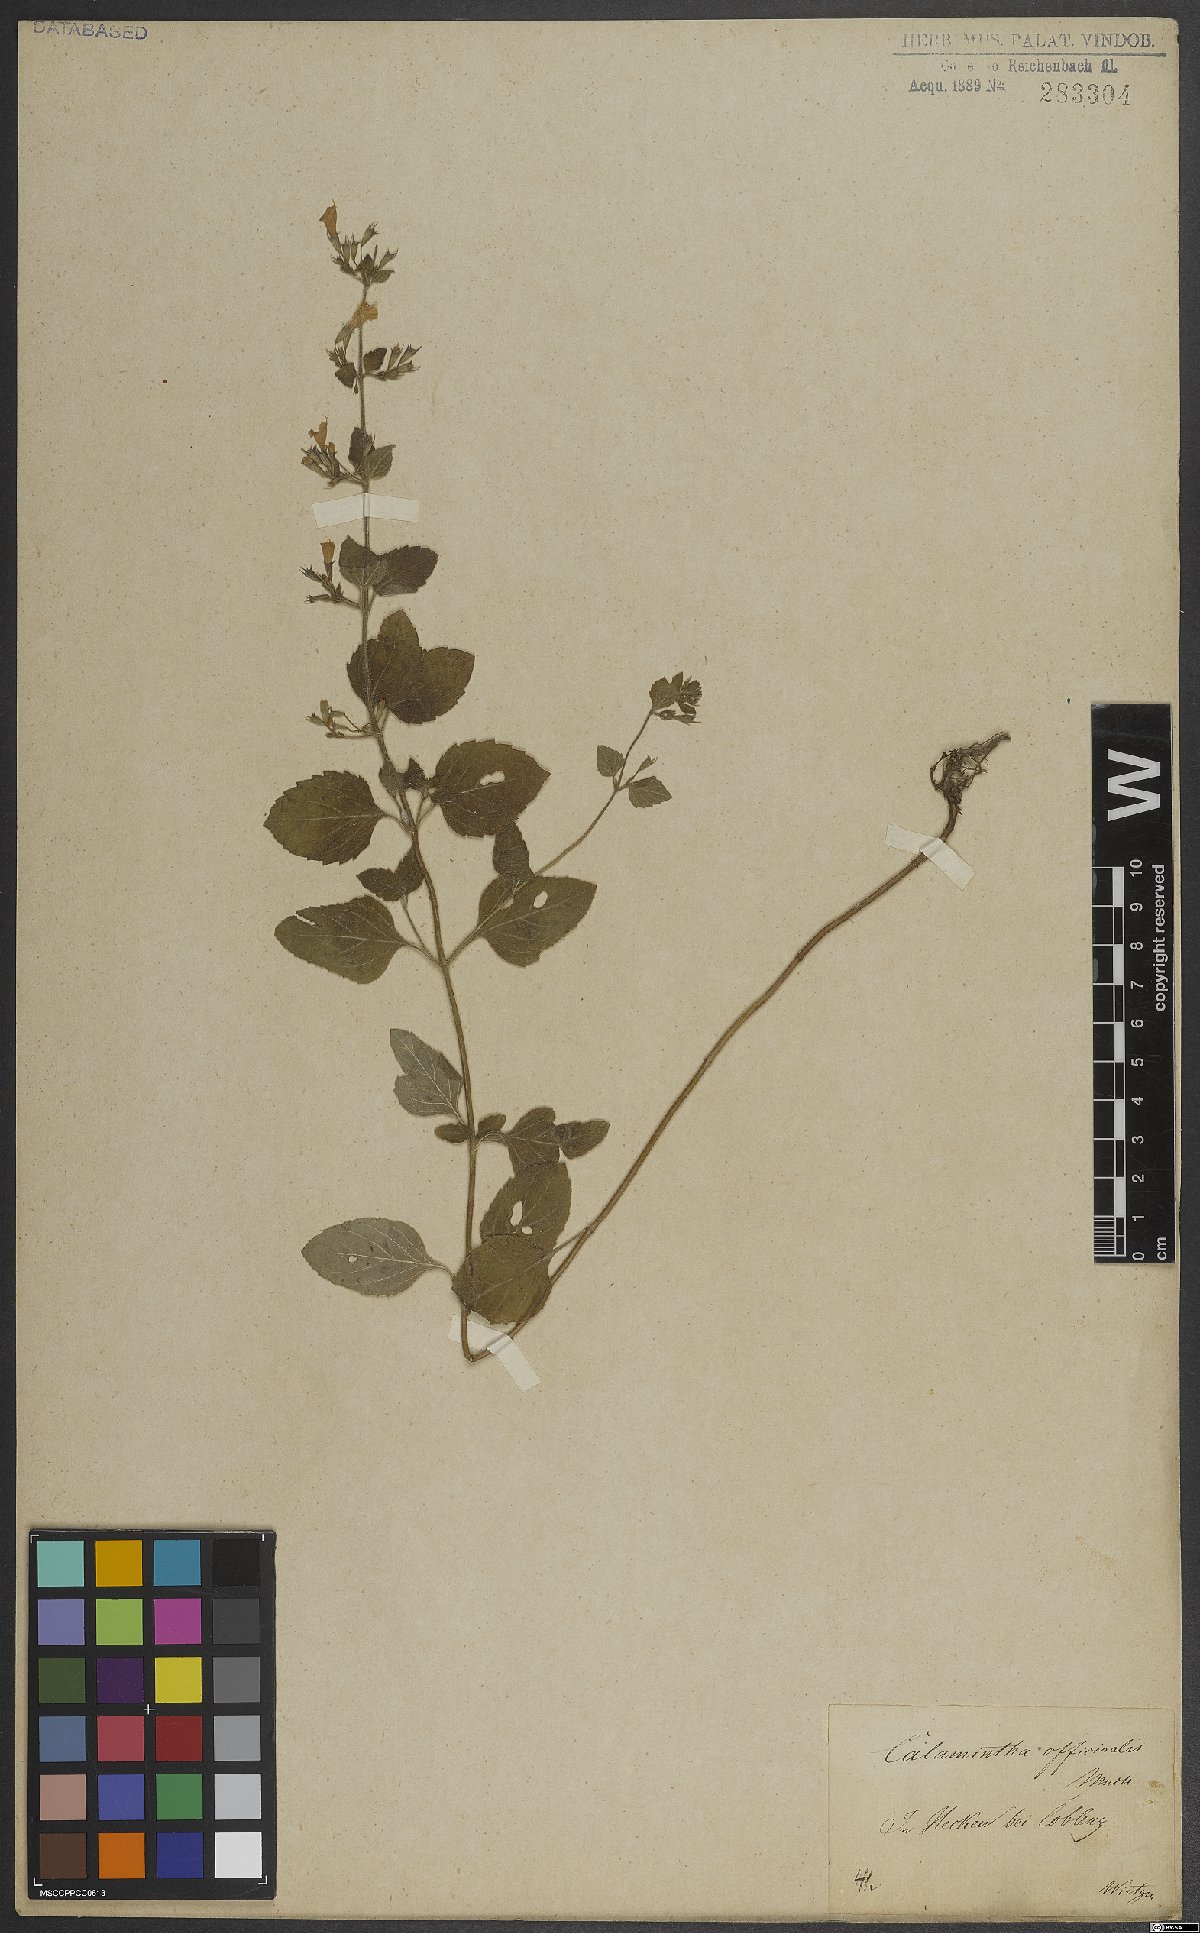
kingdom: Plantae
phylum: Tracheophyta
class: Magnoliopsida
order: Lamiales
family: Lamiaceae
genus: Clinopodium
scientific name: Clinopodium nepeta
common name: Lesser calamint
